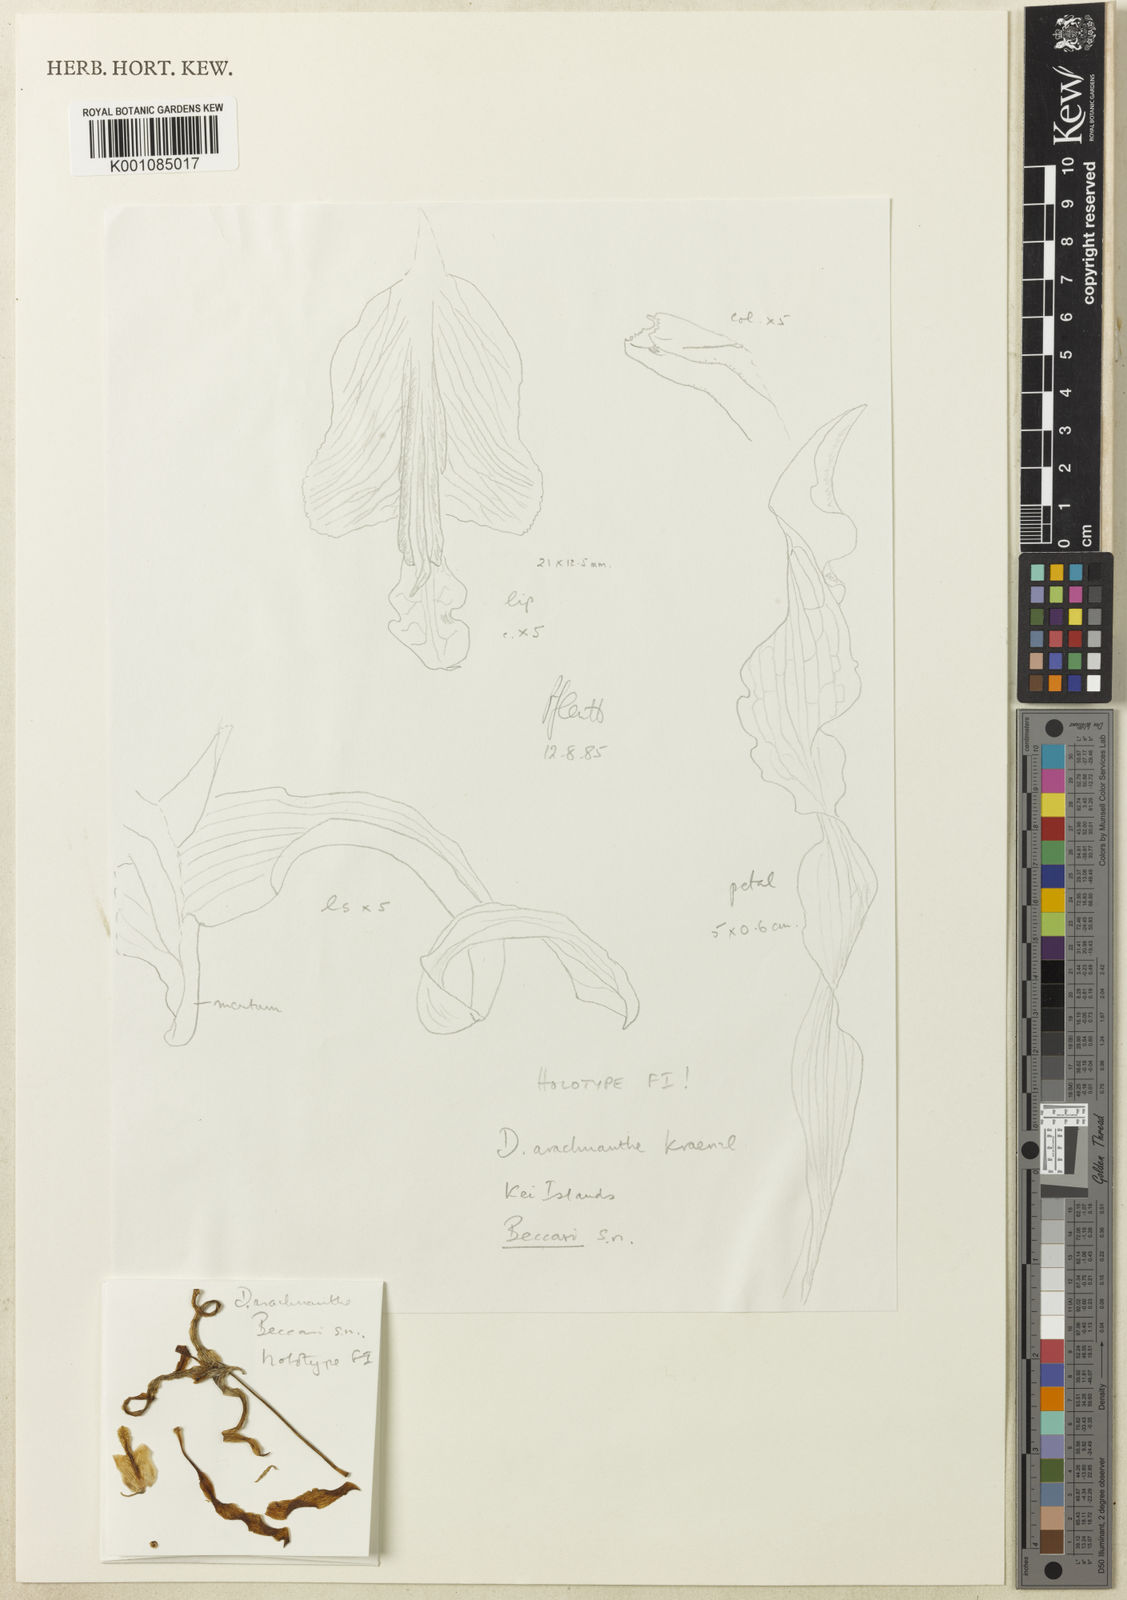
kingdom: Plantae
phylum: Tracheophyta
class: Liliopsida
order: Asparagales
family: Orchidaceae
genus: Dendrobium
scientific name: Dendrobium discolor
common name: Golden antler orchid
